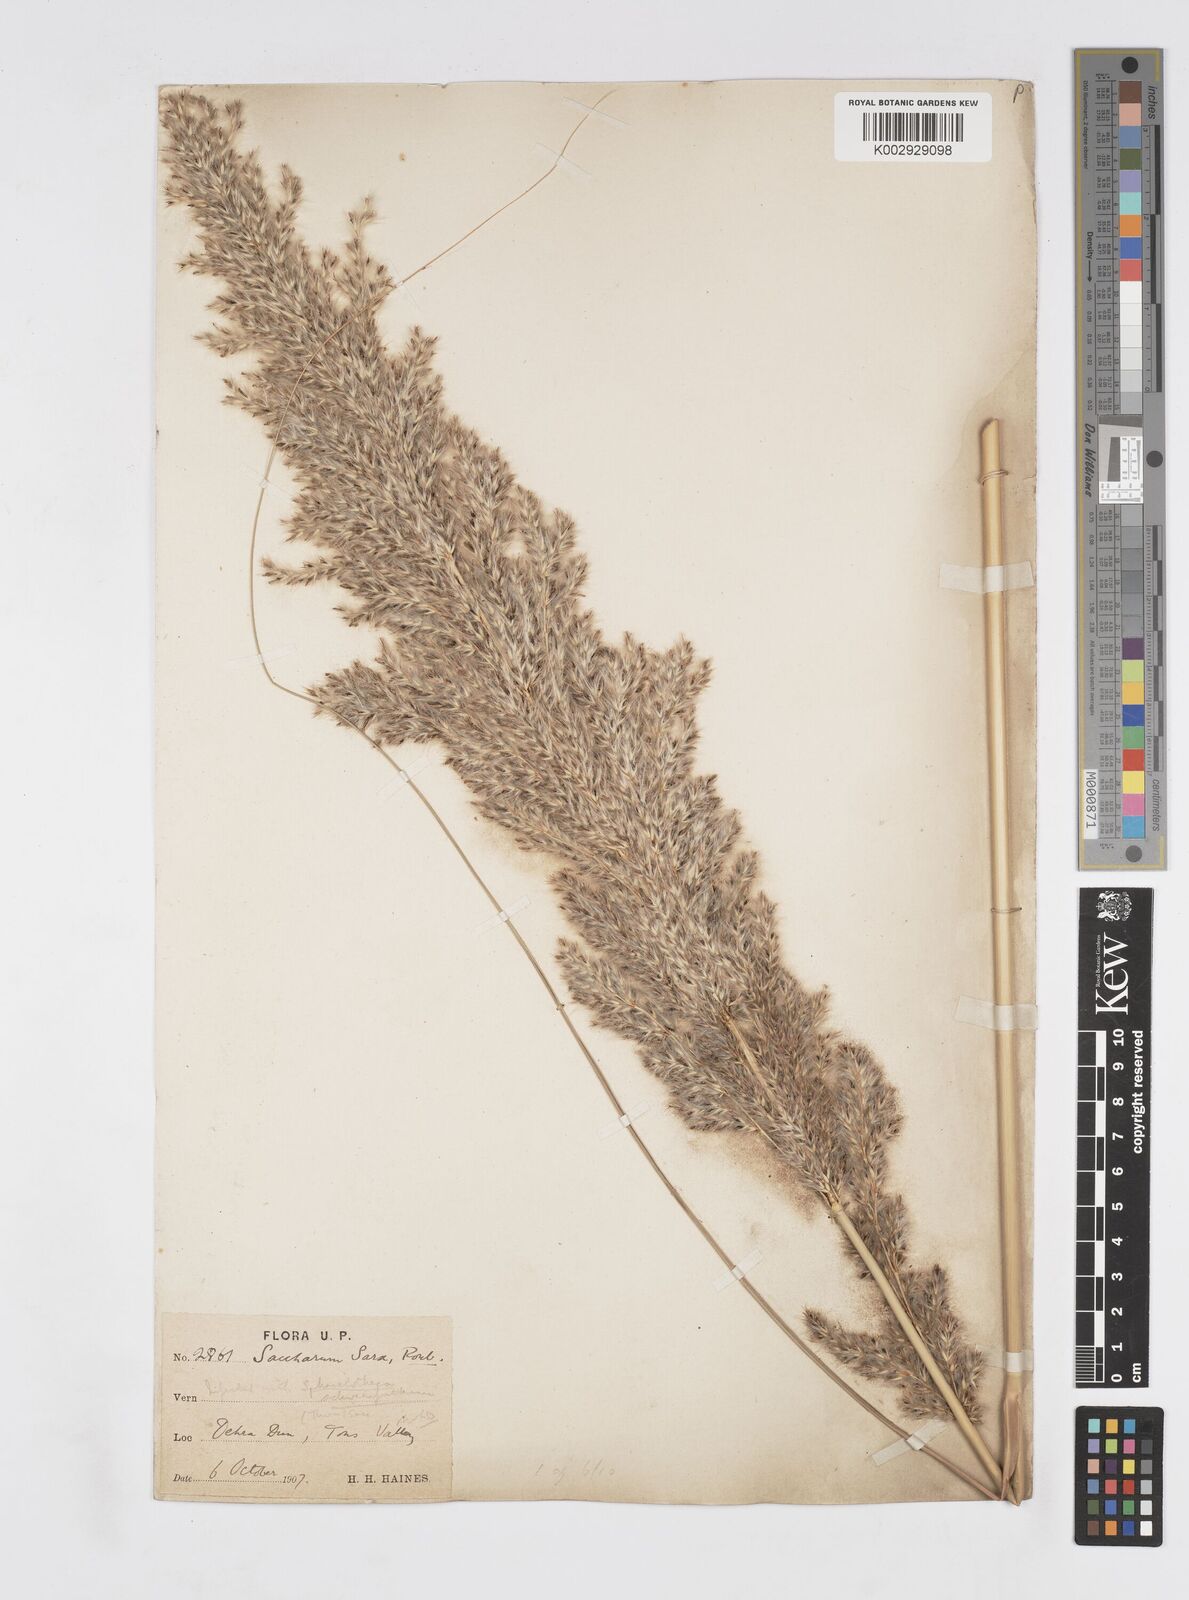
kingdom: Plantae
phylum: Tracheophyta
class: Liliopsida
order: Poales
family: Poaceae
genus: Tripidium
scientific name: Tripidium bengalense
